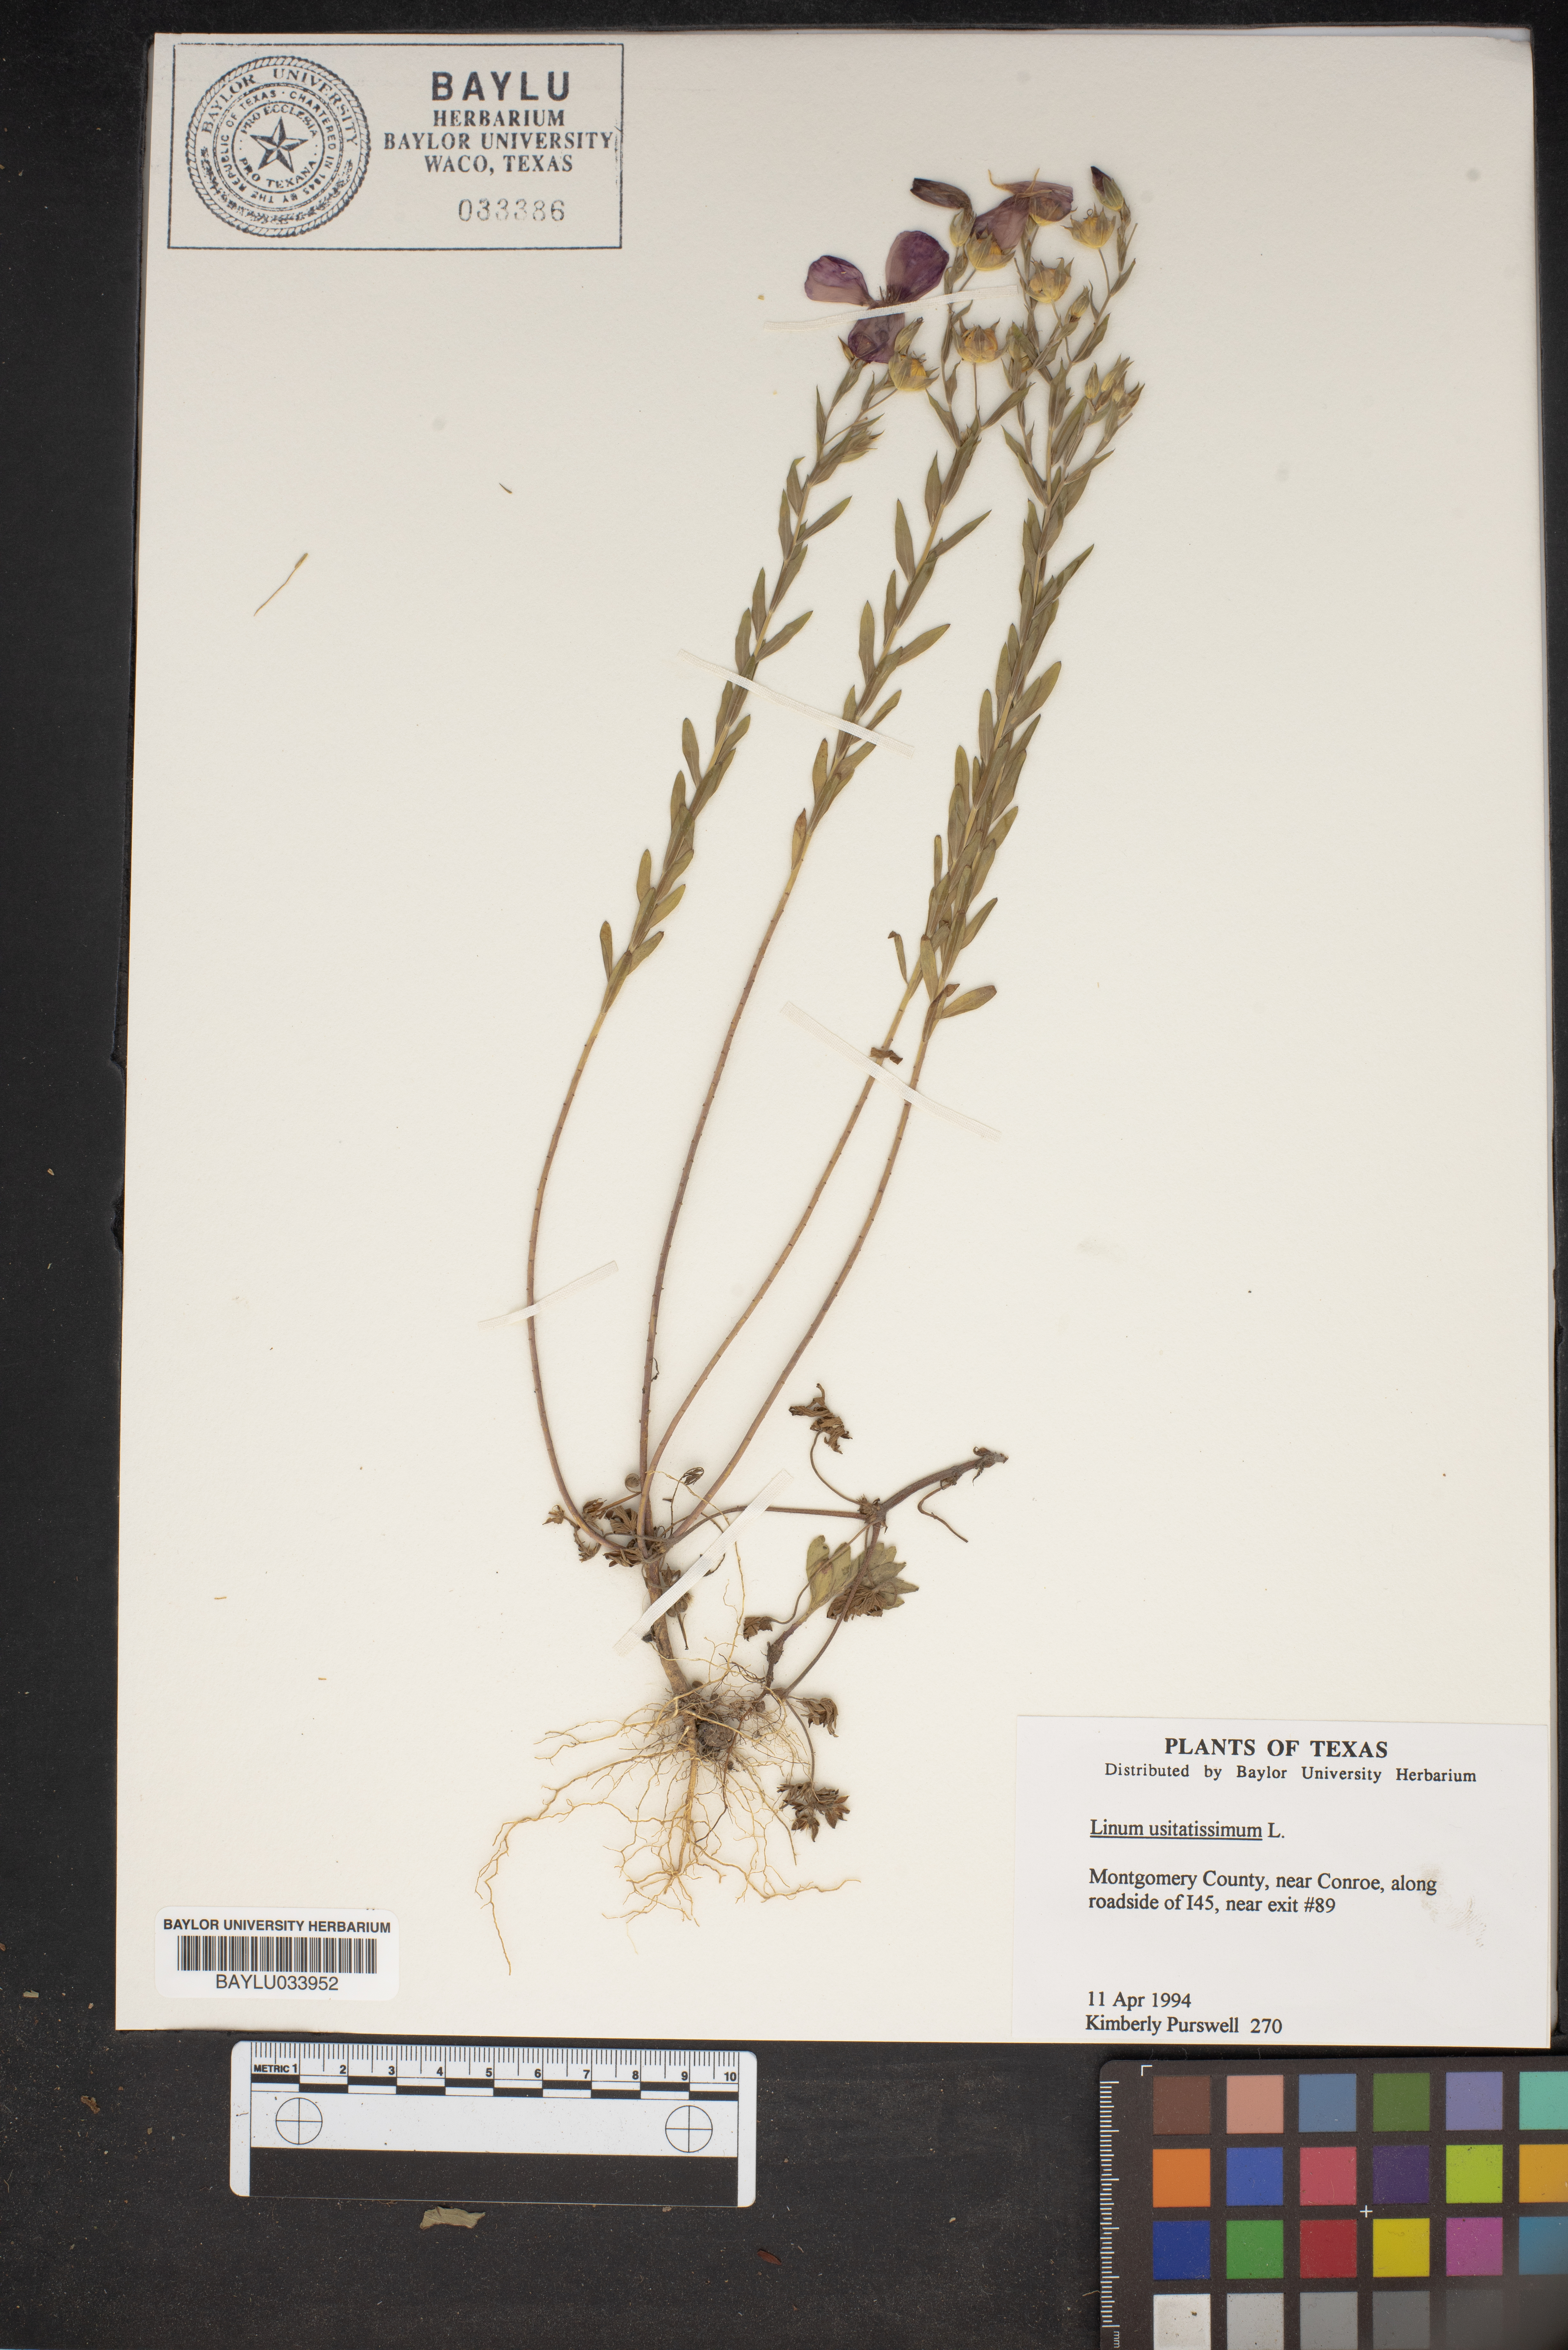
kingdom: Plantae
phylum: Tracheophyta
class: Magnoliopsida
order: Malpighiales
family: Linaceae
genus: Linum
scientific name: Linum usitatissimum
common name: Flax
